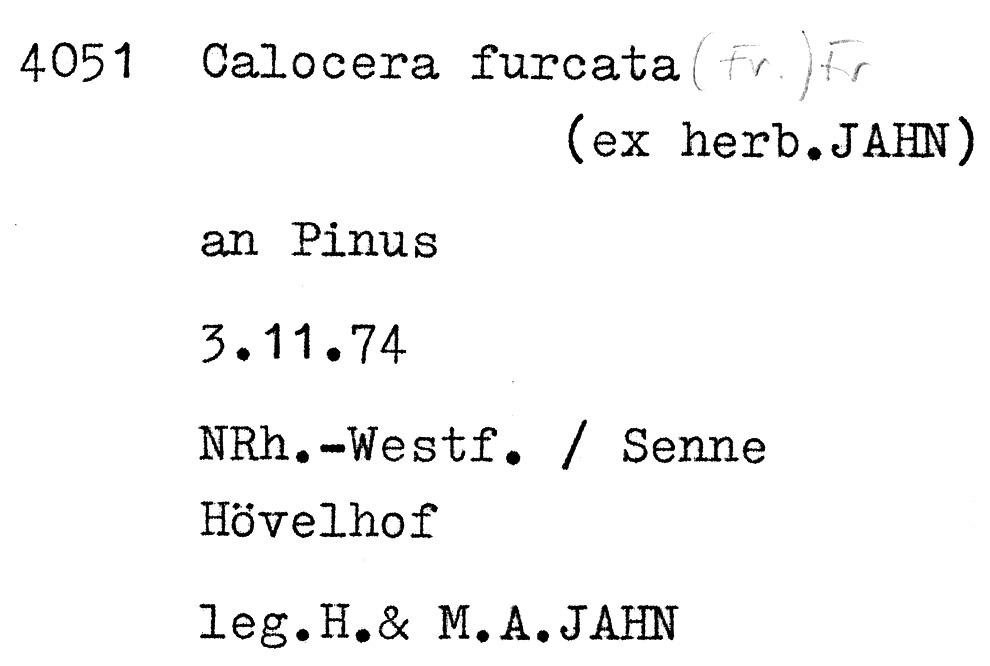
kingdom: Fungi
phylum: Basidiomycota
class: Dacrymycetes
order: Dacrymycetales
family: Dacrymycetaceae
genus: Calocera
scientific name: Calocera furcata
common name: Forked stagshorn
